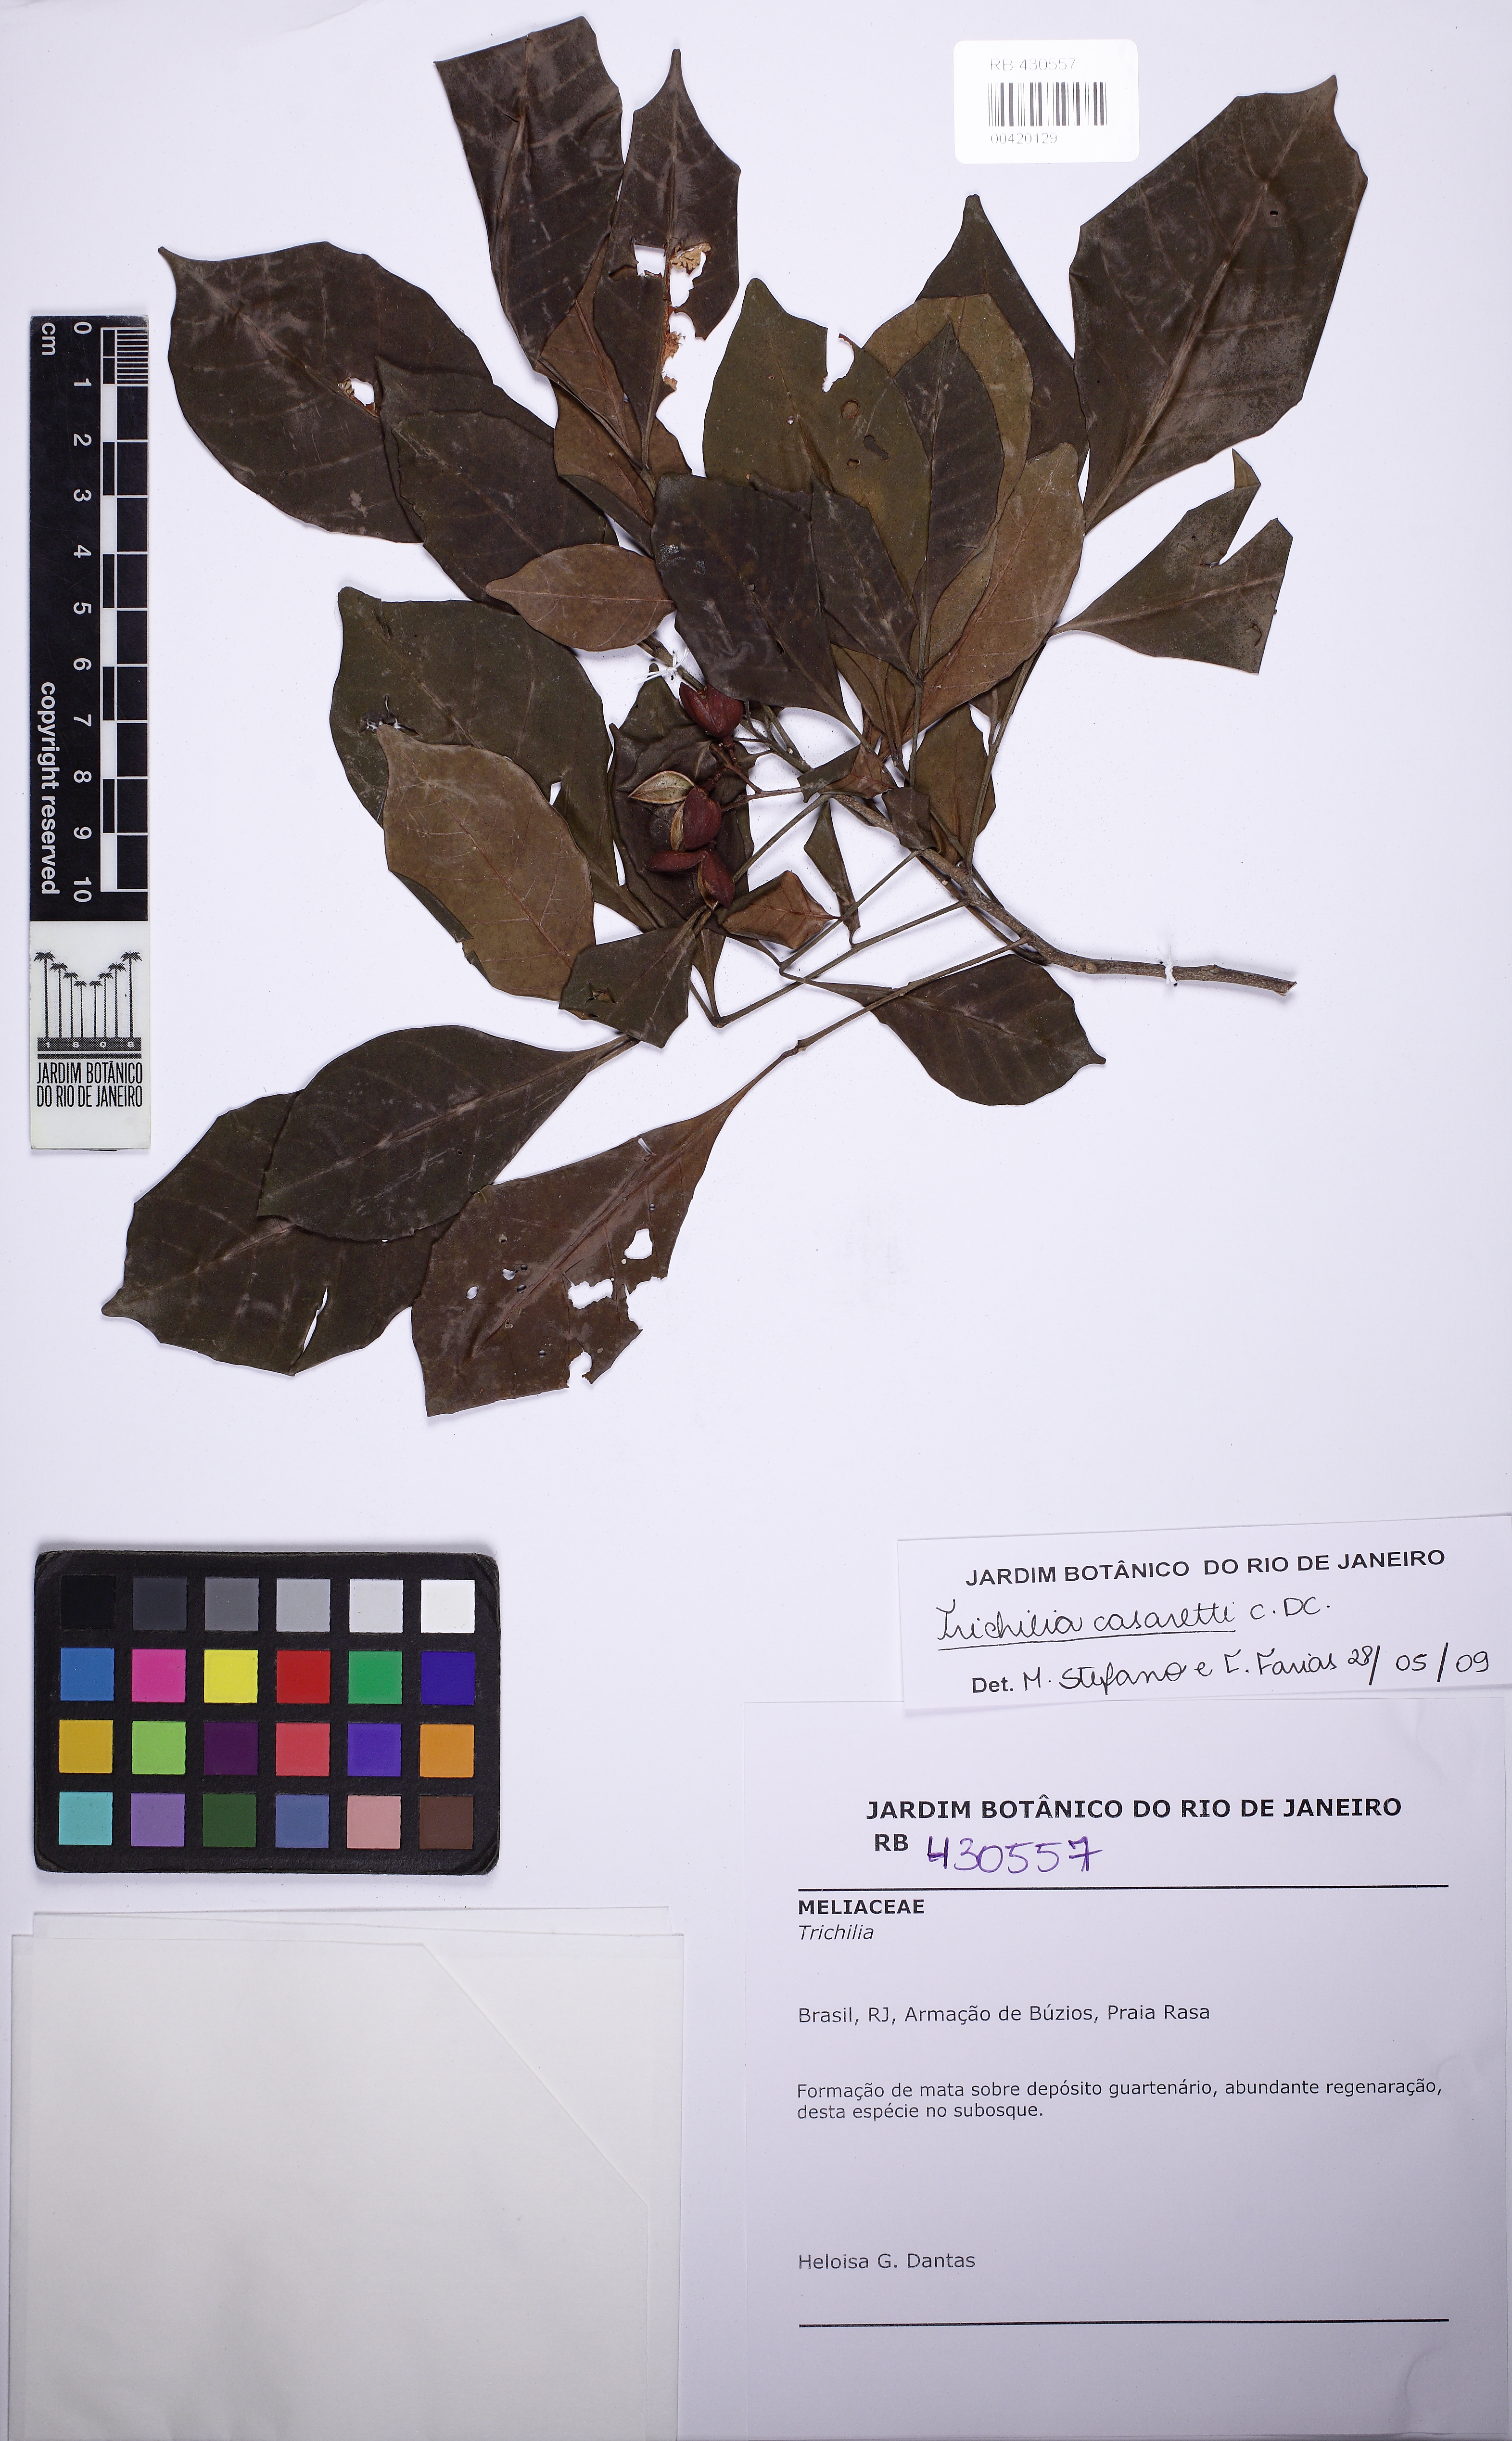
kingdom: Plantae
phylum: Tracheophyta
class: Magnoliopsida
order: Sapindales
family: Meliaceae
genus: Trichilia
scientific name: Trichilia casaretti
